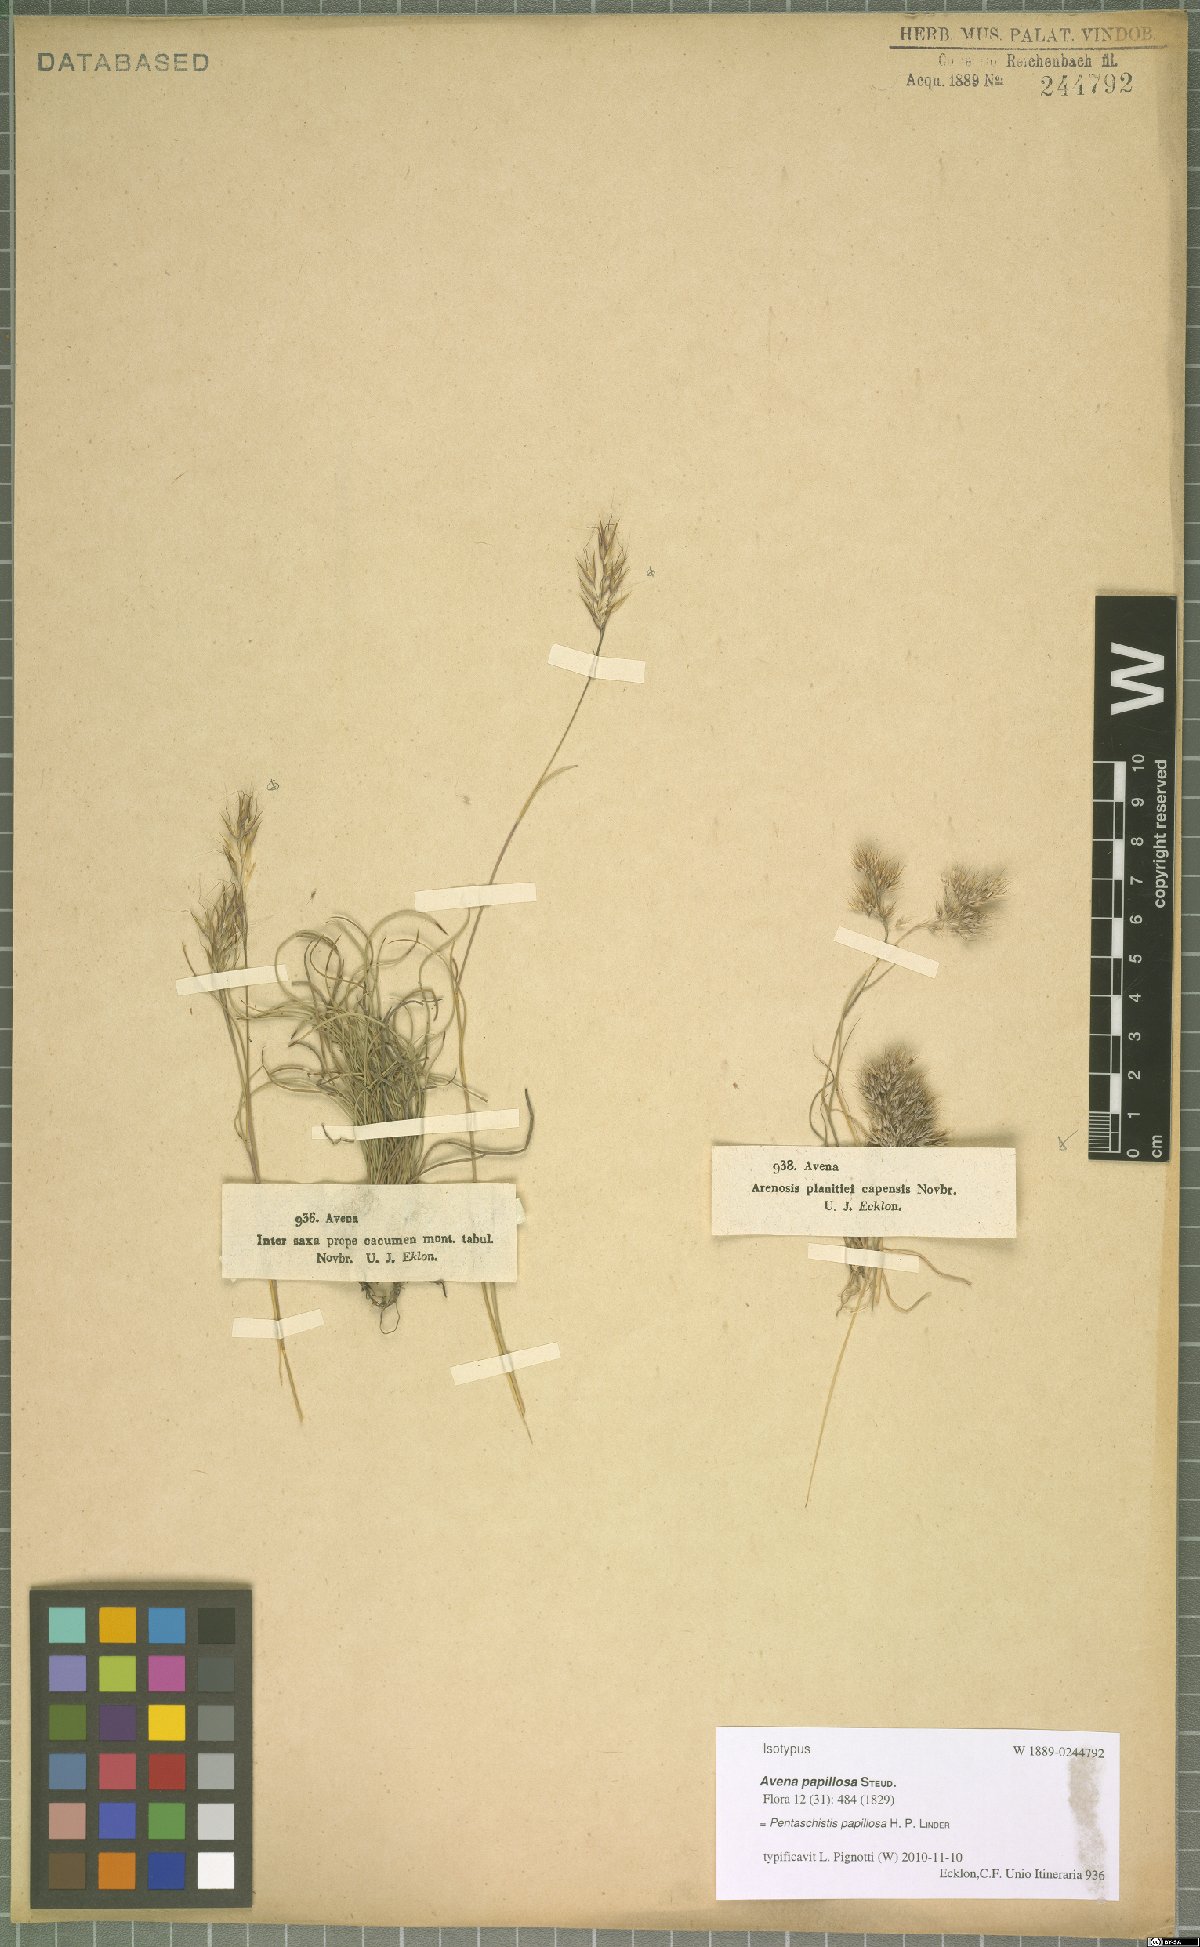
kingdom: Plantae
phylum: Tracheophyta
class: Liliopsida
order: Poales
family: Poaceae
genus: Pentameris
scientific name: Pentameris scabra
